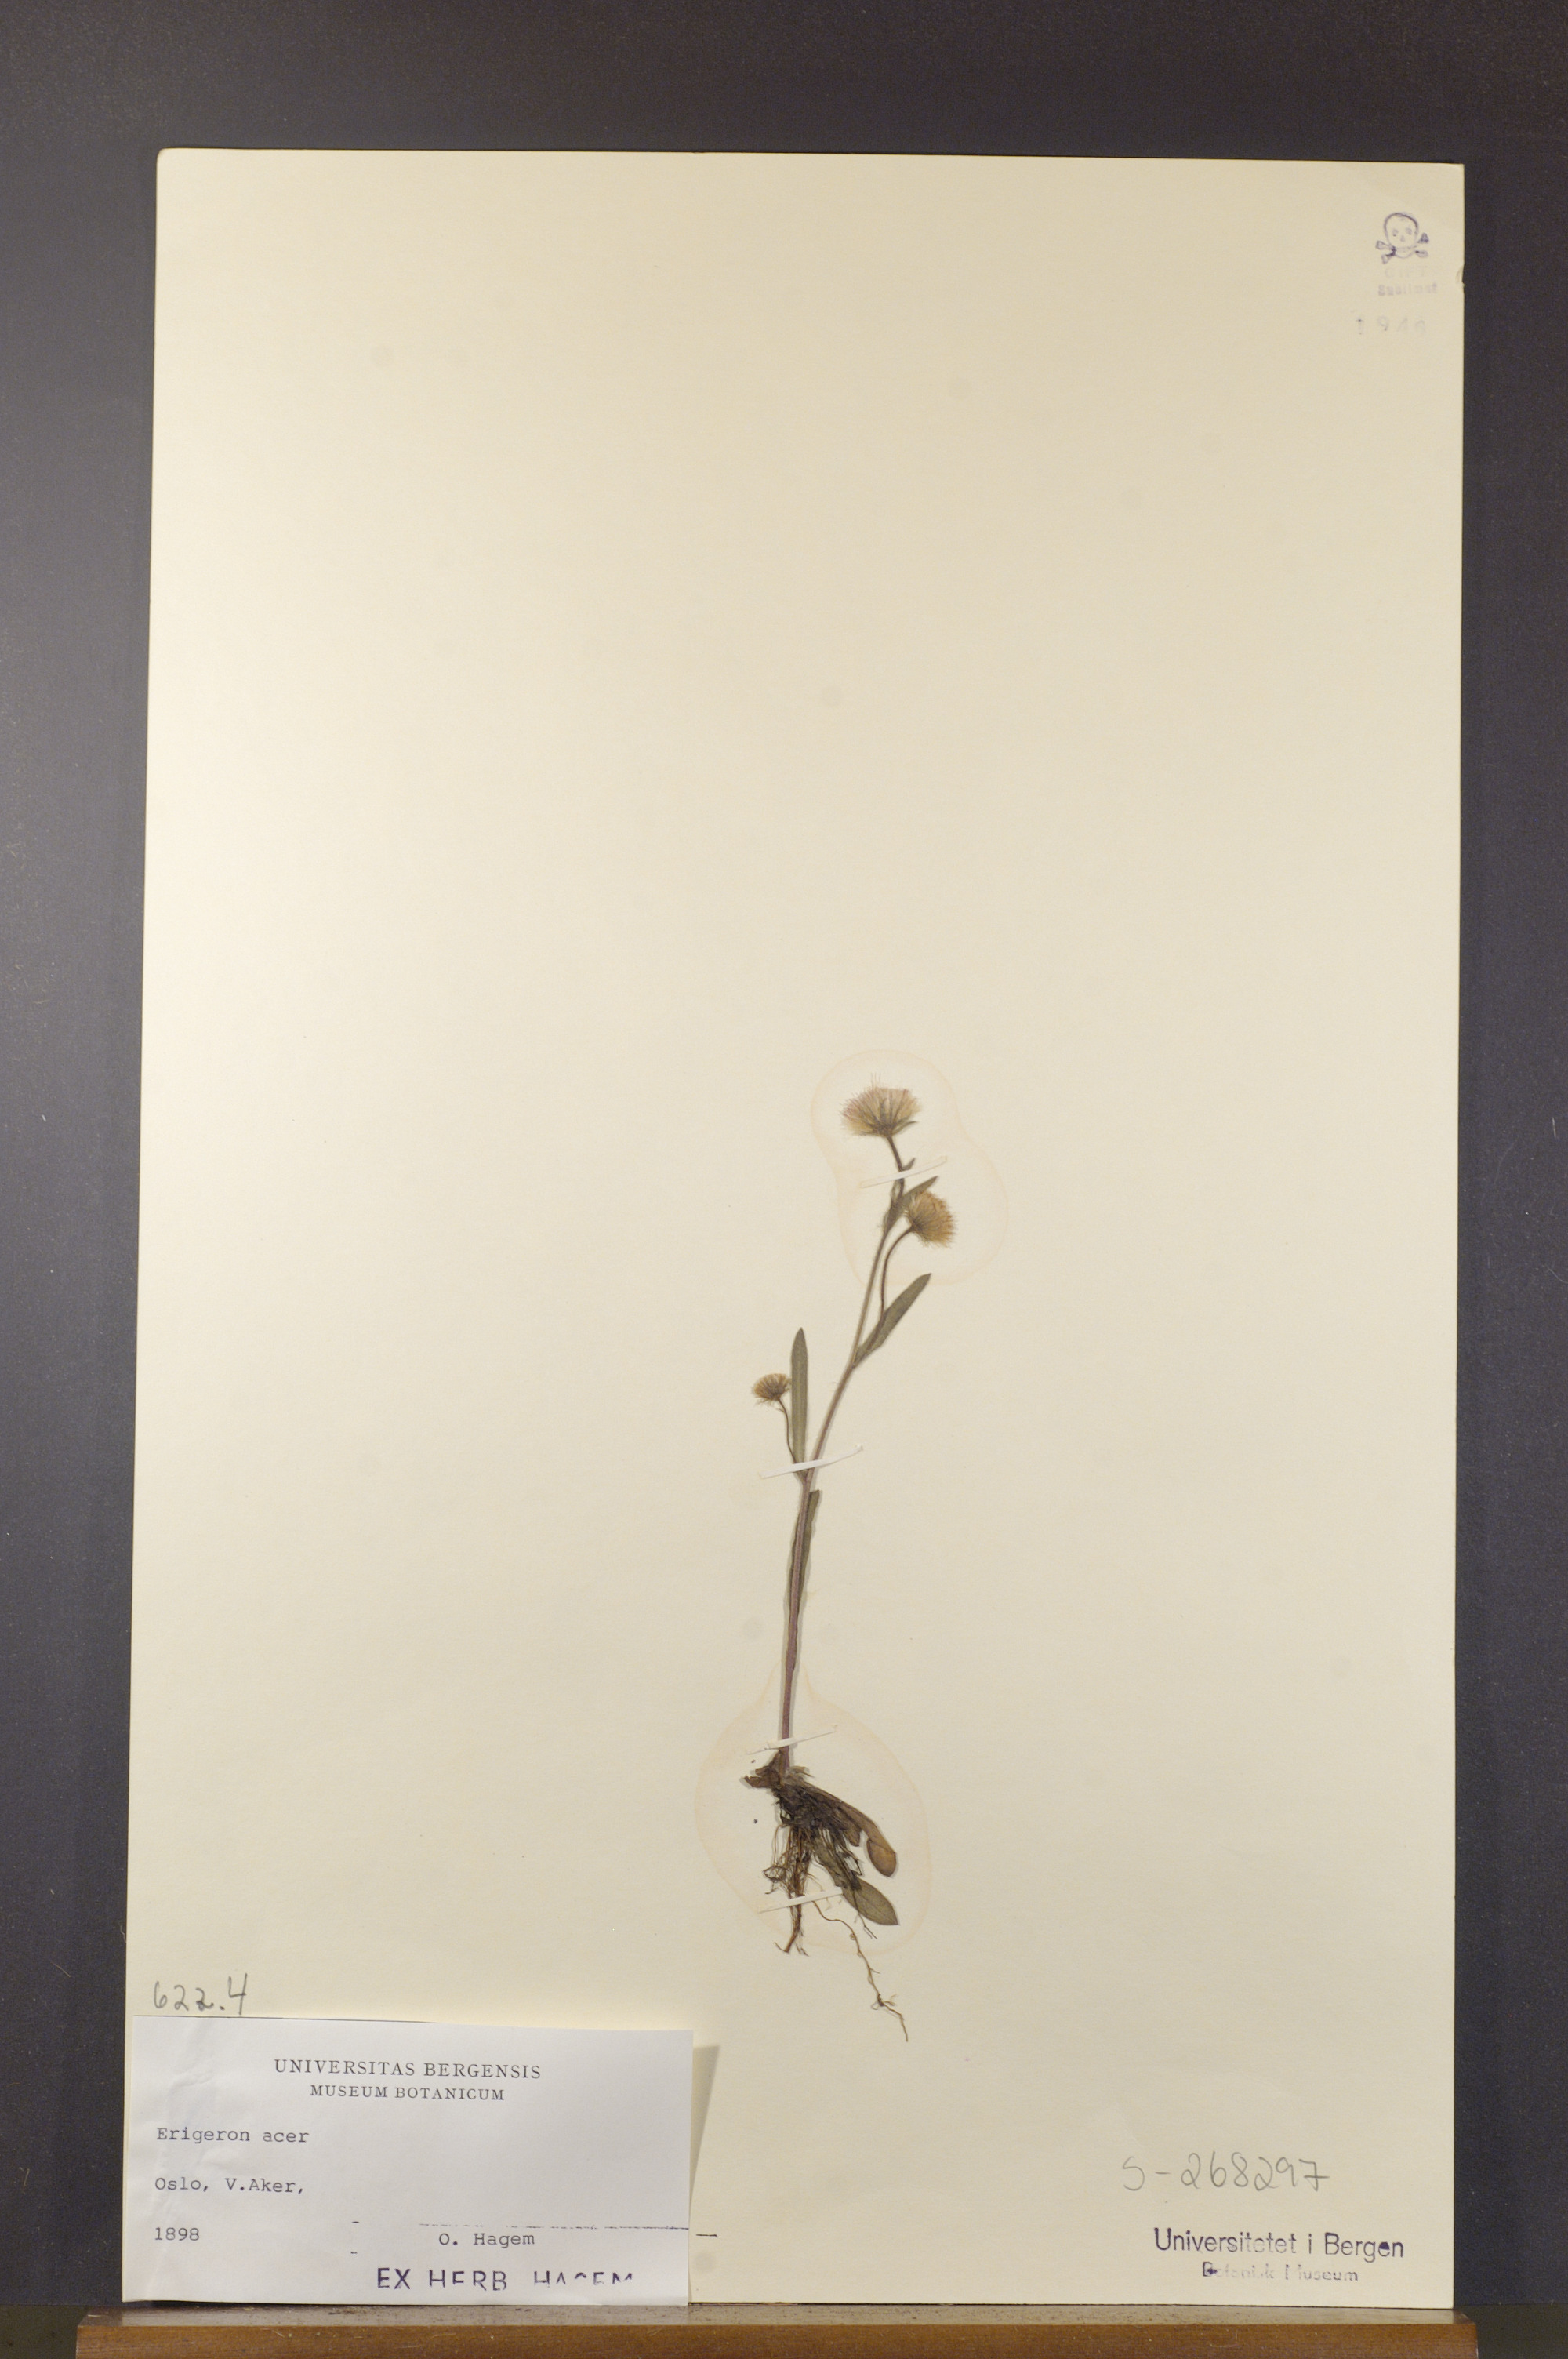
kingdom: Plantae
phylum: Tracheophyta
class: Magnoliopsida
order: Asterales
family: Asteraceae
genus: Erigeron
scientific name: Erigeron acris
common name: Blue fleabane
